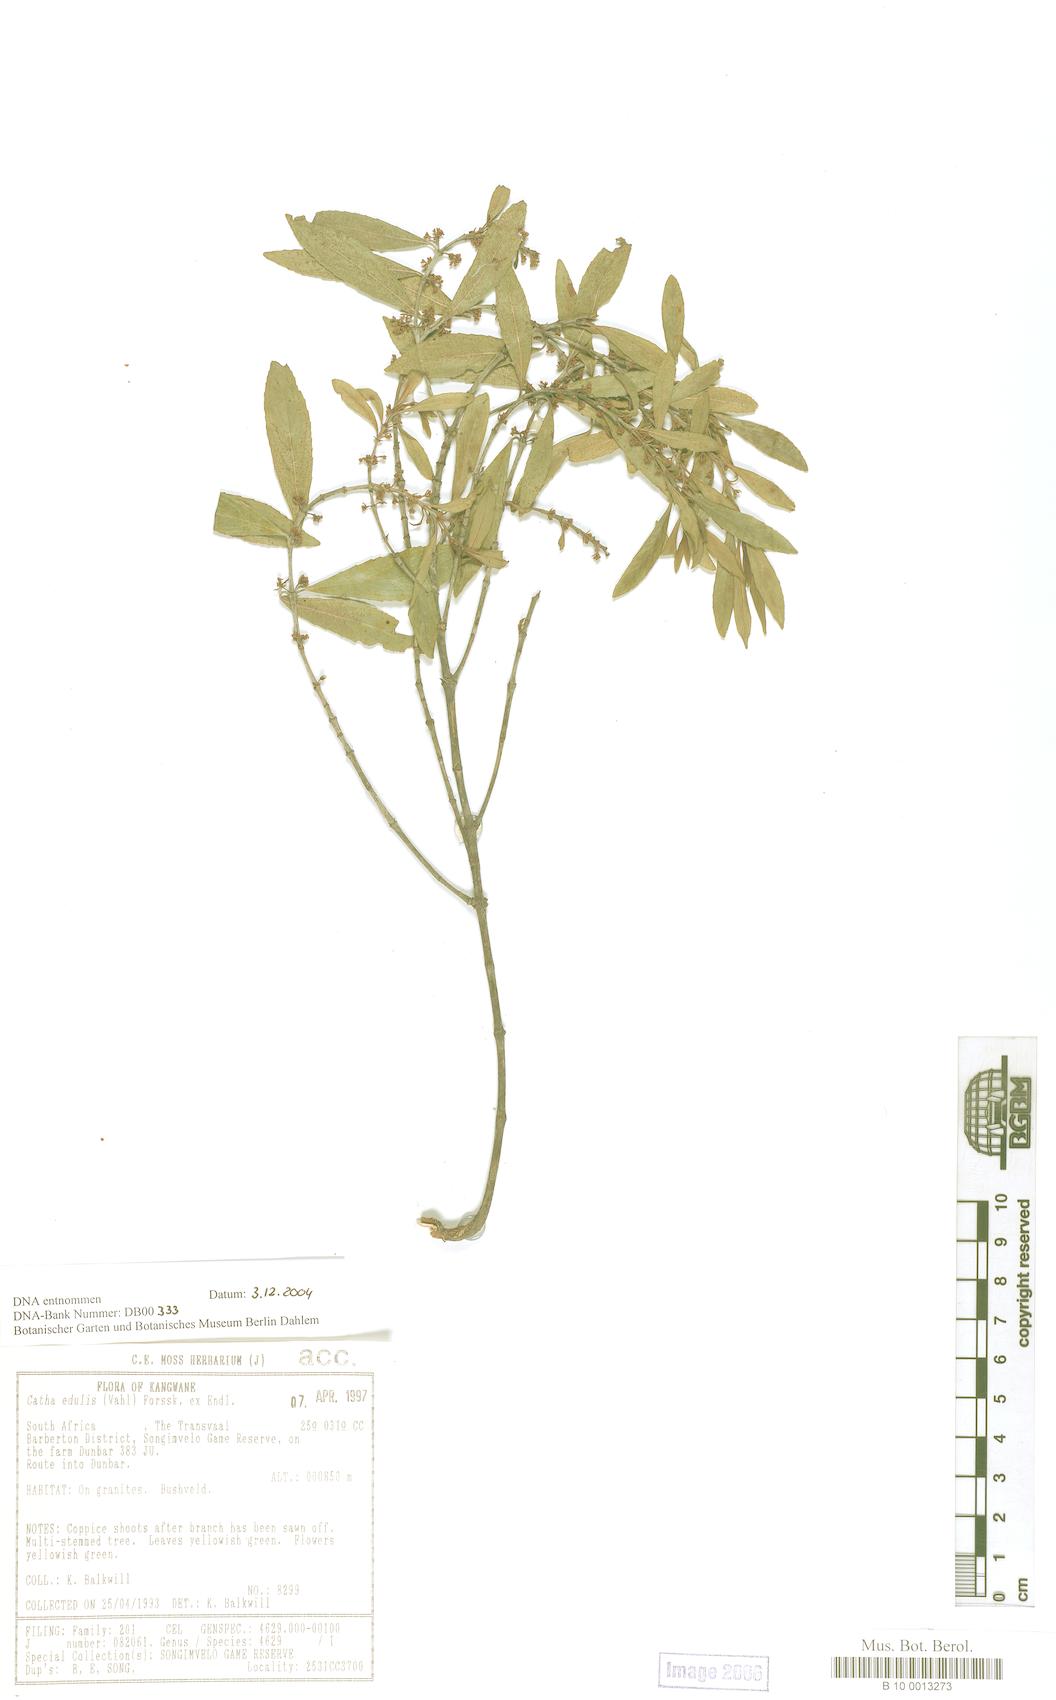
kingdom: Plantae
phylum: Tracheophyta
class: Magnoliopsida
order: Celastrales
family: Celastraceae
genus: Catha
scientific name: Catha edulis
